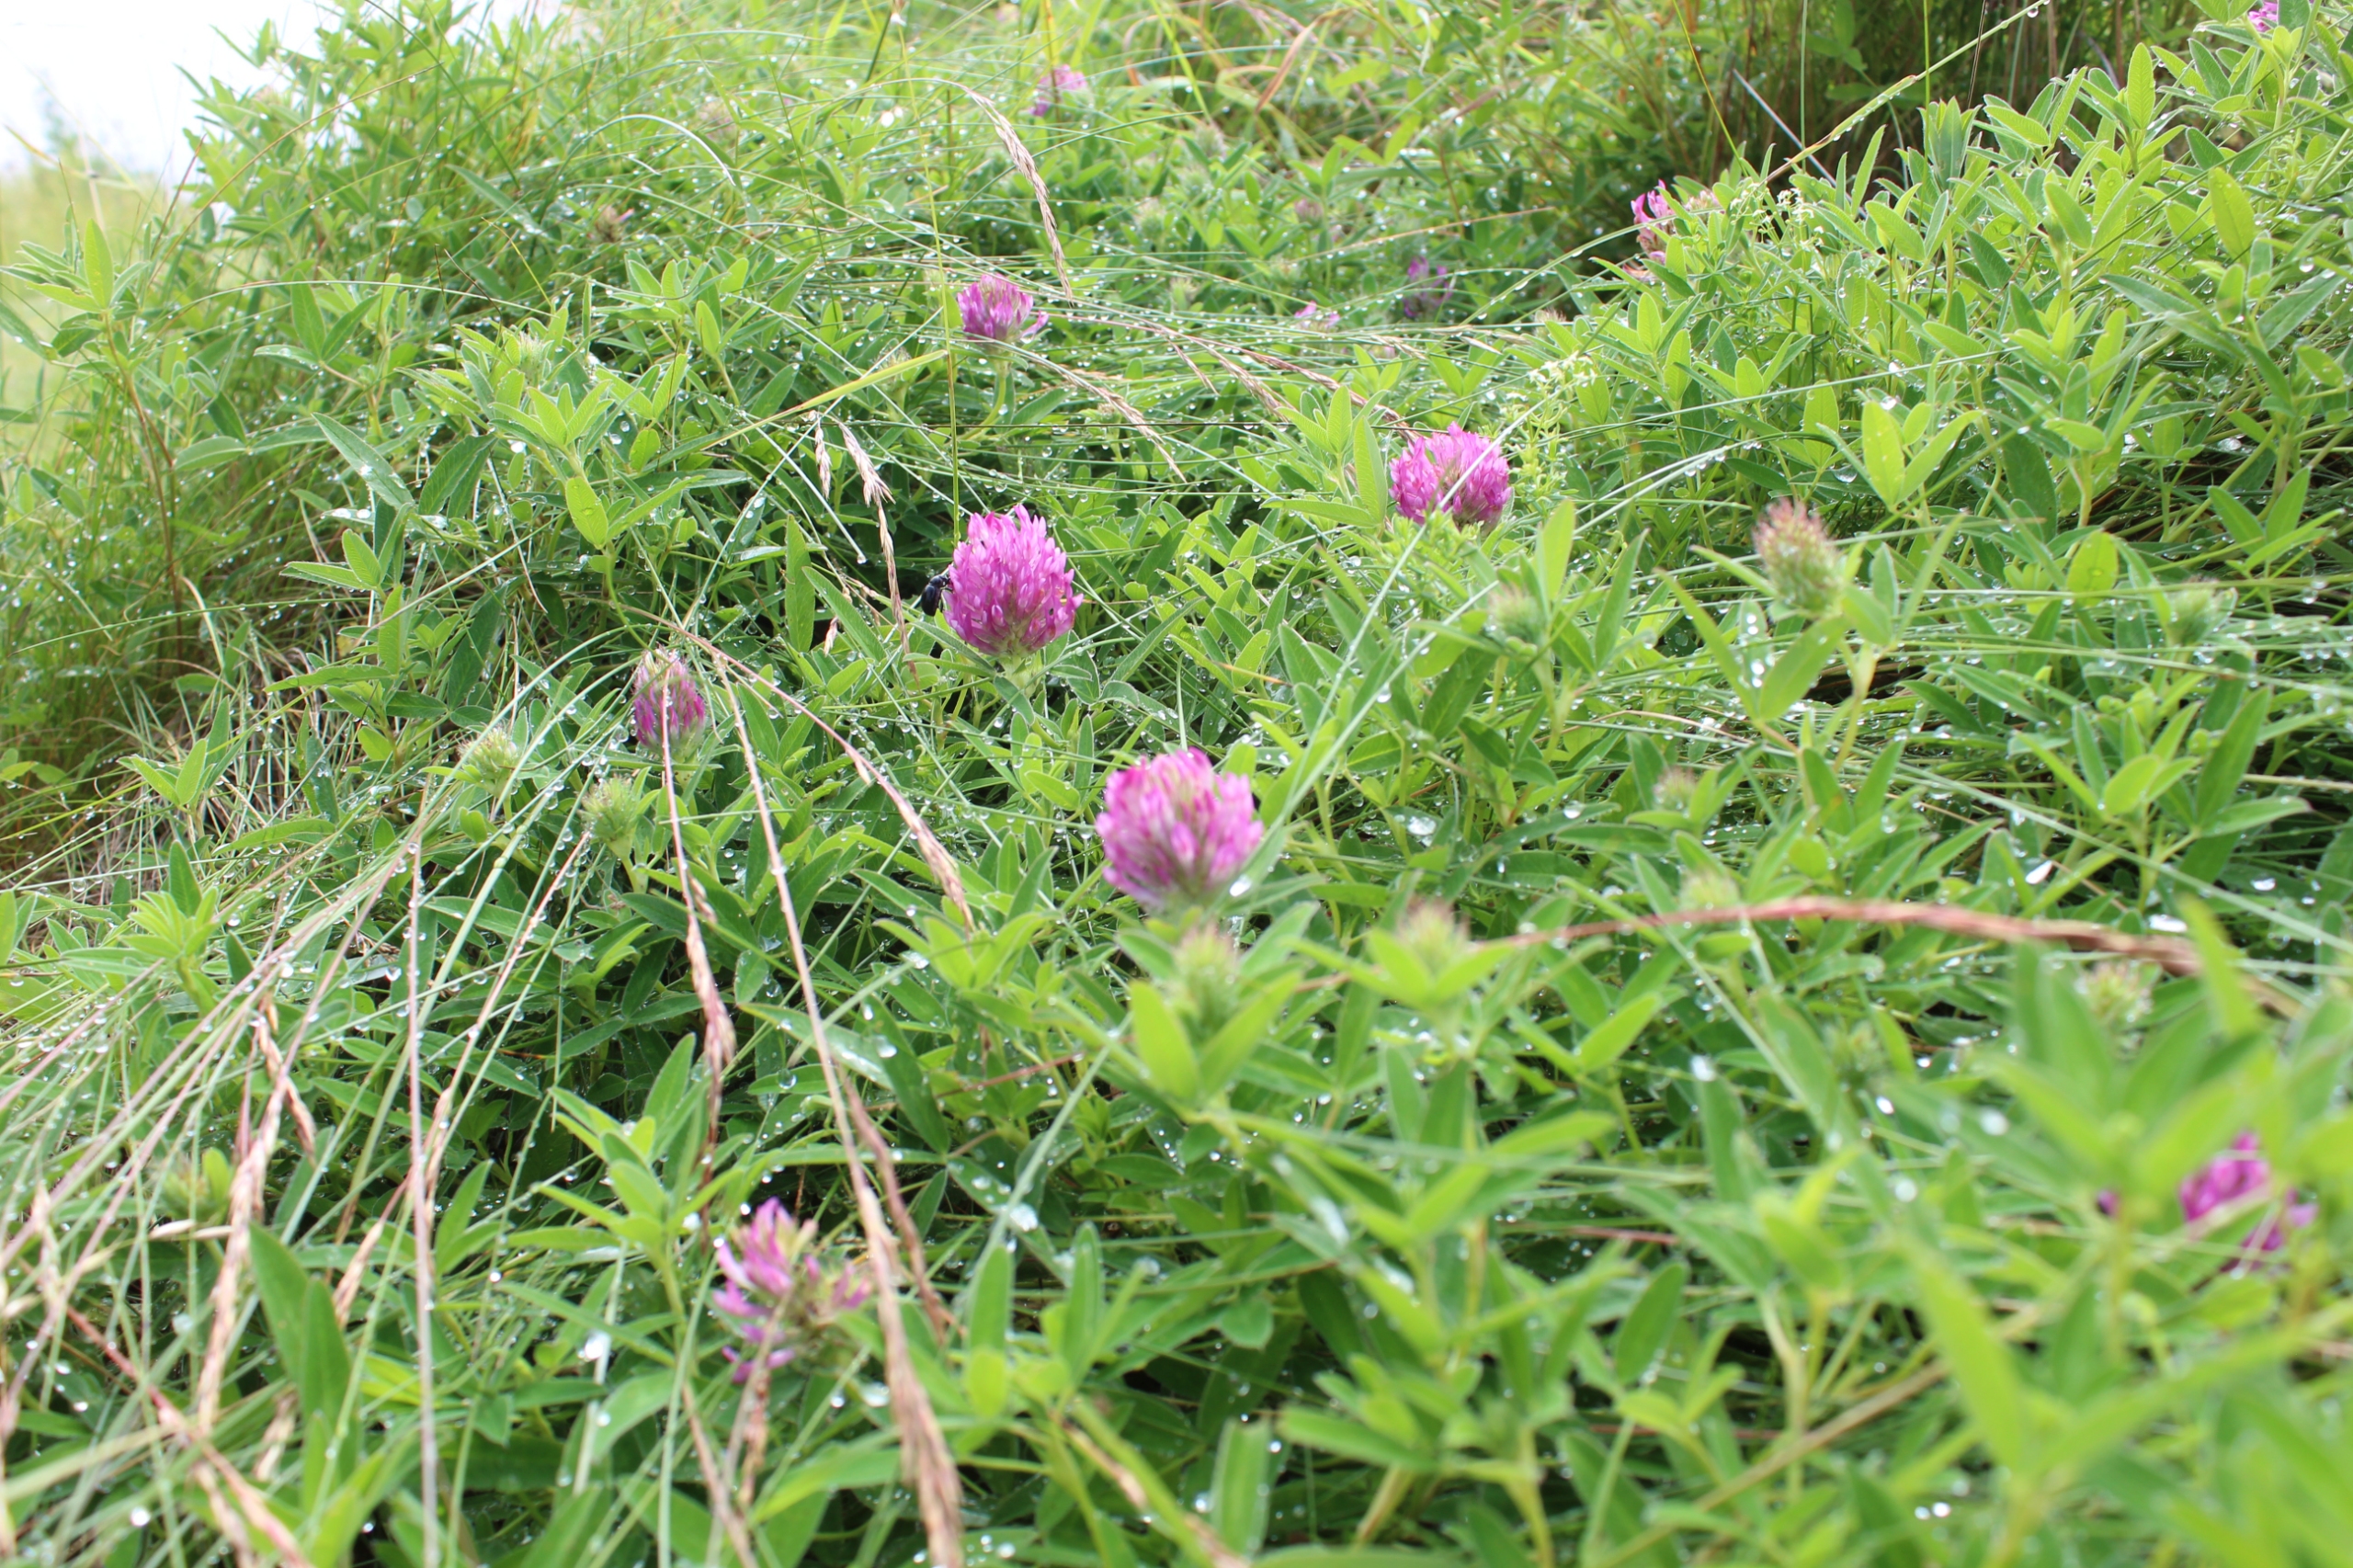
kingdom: Plantae
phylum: Tracheophyta
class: Magnoliopsida
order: Fabales
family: Fabaceae
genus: Trifolium
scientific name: Trifolium medium
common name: Bugtet kløver
